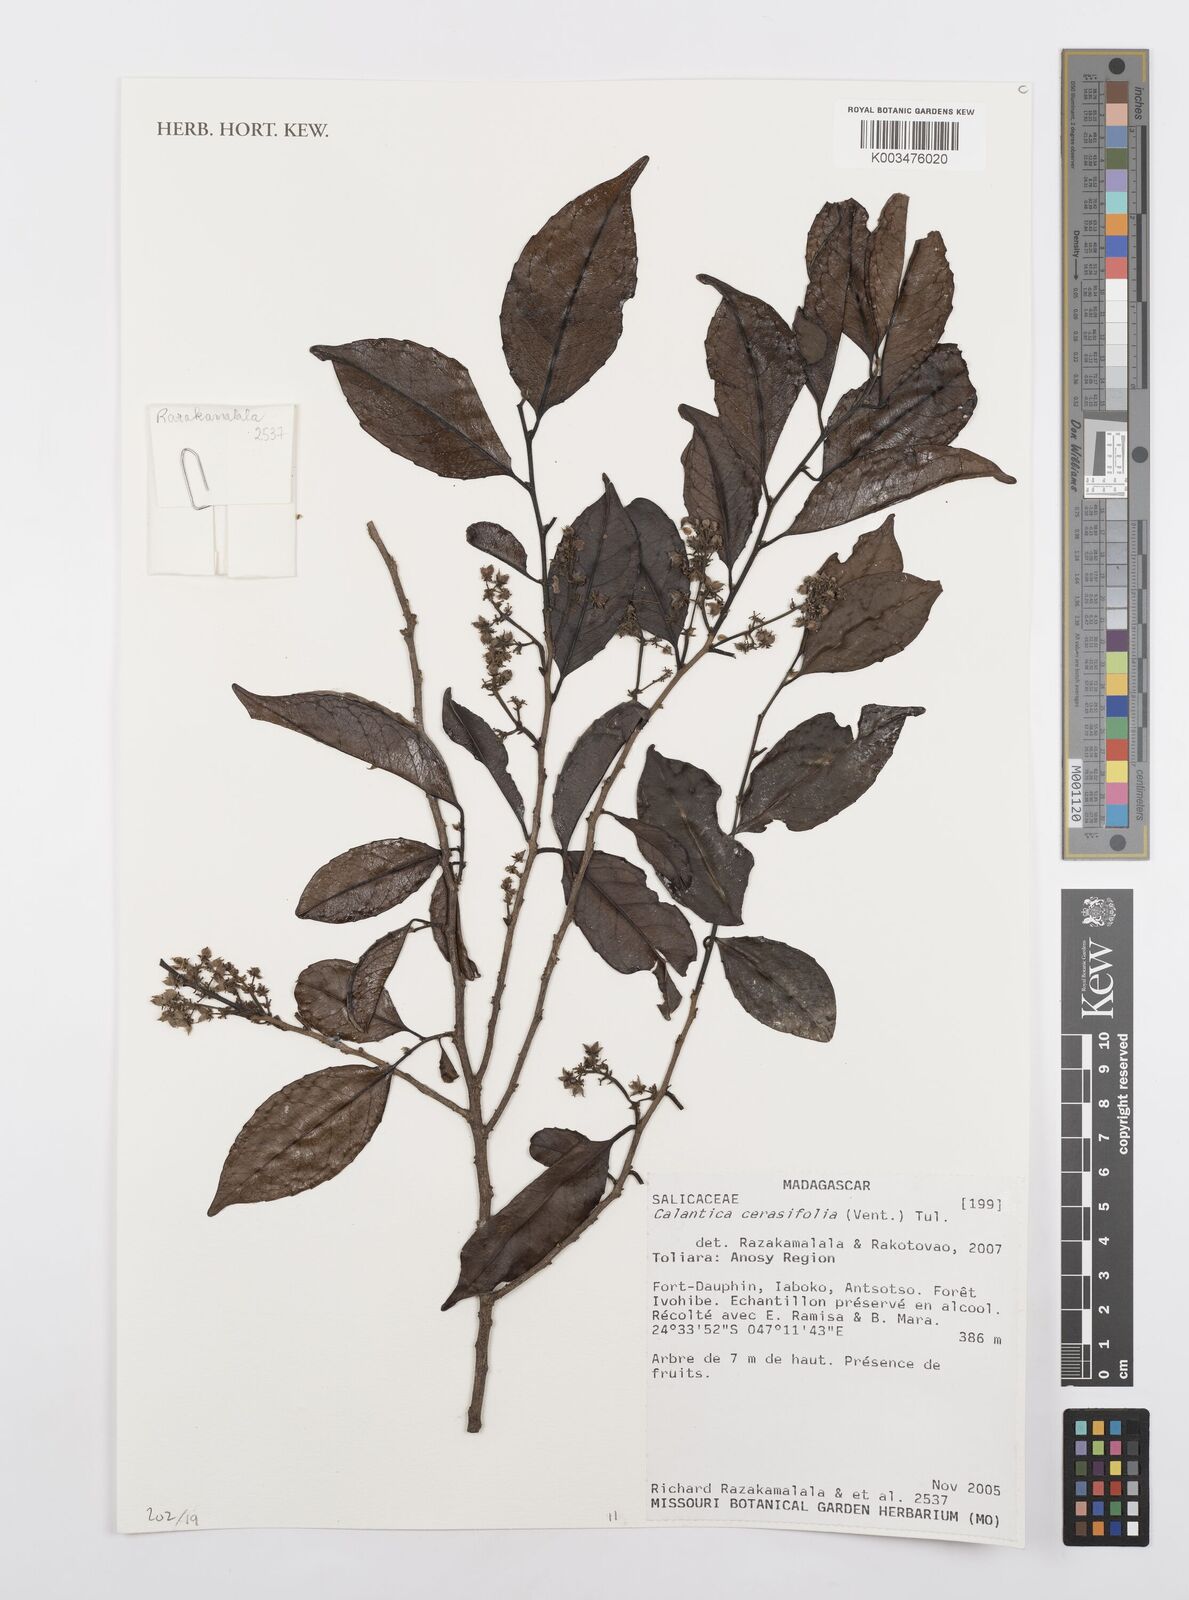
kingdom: Plantae
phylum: Tracheophyta
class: Magnoliopsida
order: Malpighiales
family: Salicaceae
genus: Calantica
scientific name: Calantica cerasifolia
